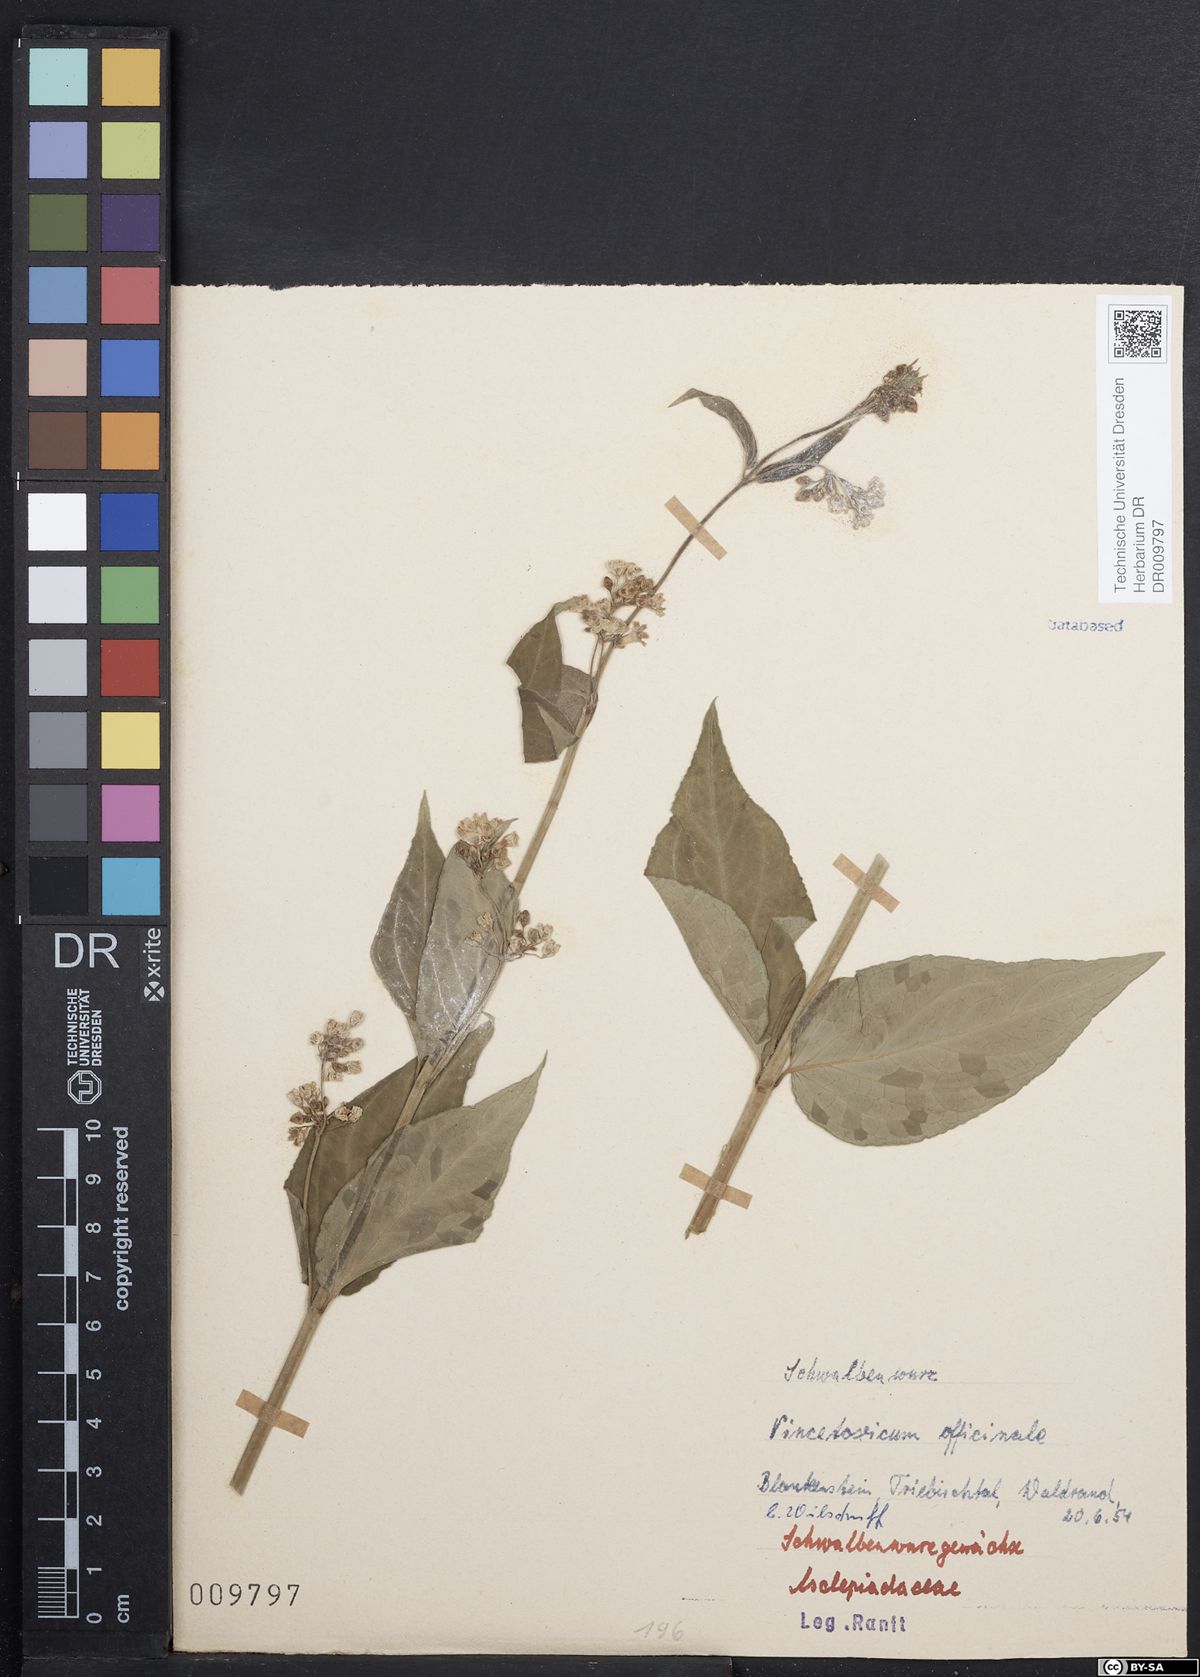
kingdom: Plantae
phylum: Tracheophyta
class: Magnoliopsida
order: Gentianales
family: Apocynaceae
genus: Vincetoxicum
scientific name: Vincetoxicum hirundinaria
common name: White swallowwort
